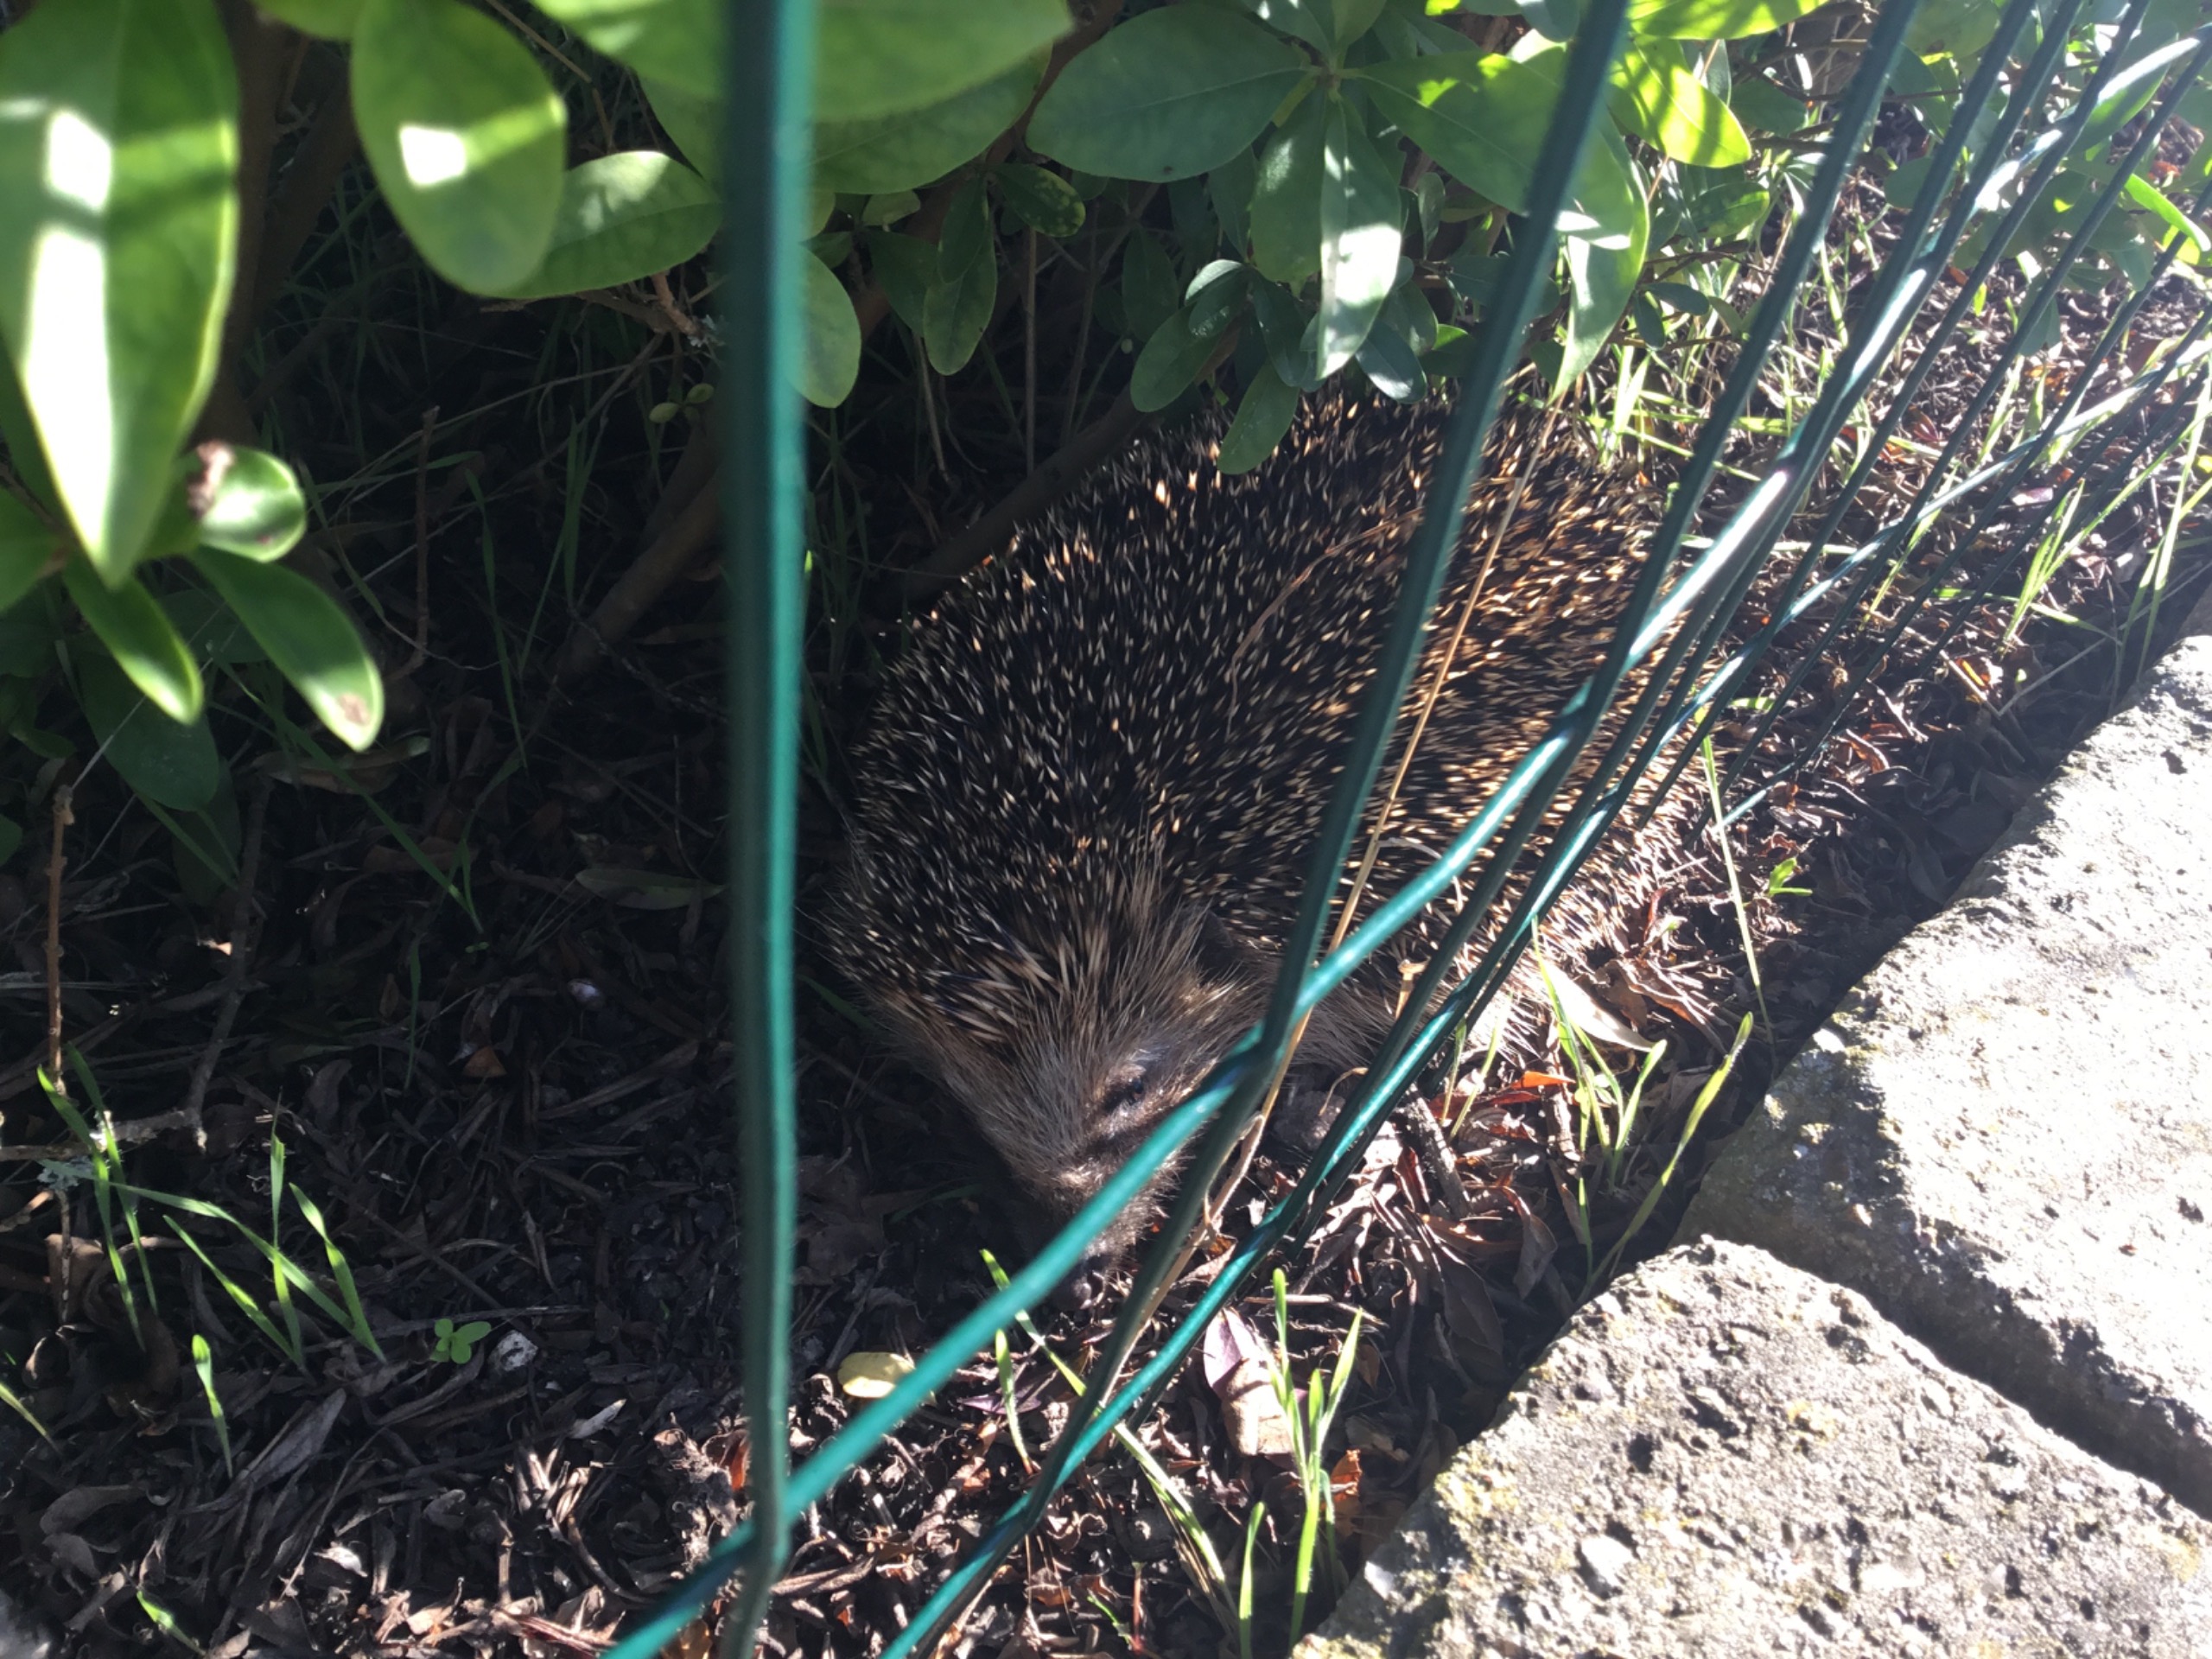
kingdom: Animalia
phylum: Chordata
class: Mammalia
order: Erinaceomorpha
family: Erinaceidae
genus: Erinaceus
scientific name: Erinaceus europaeus
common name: Pindsvin
